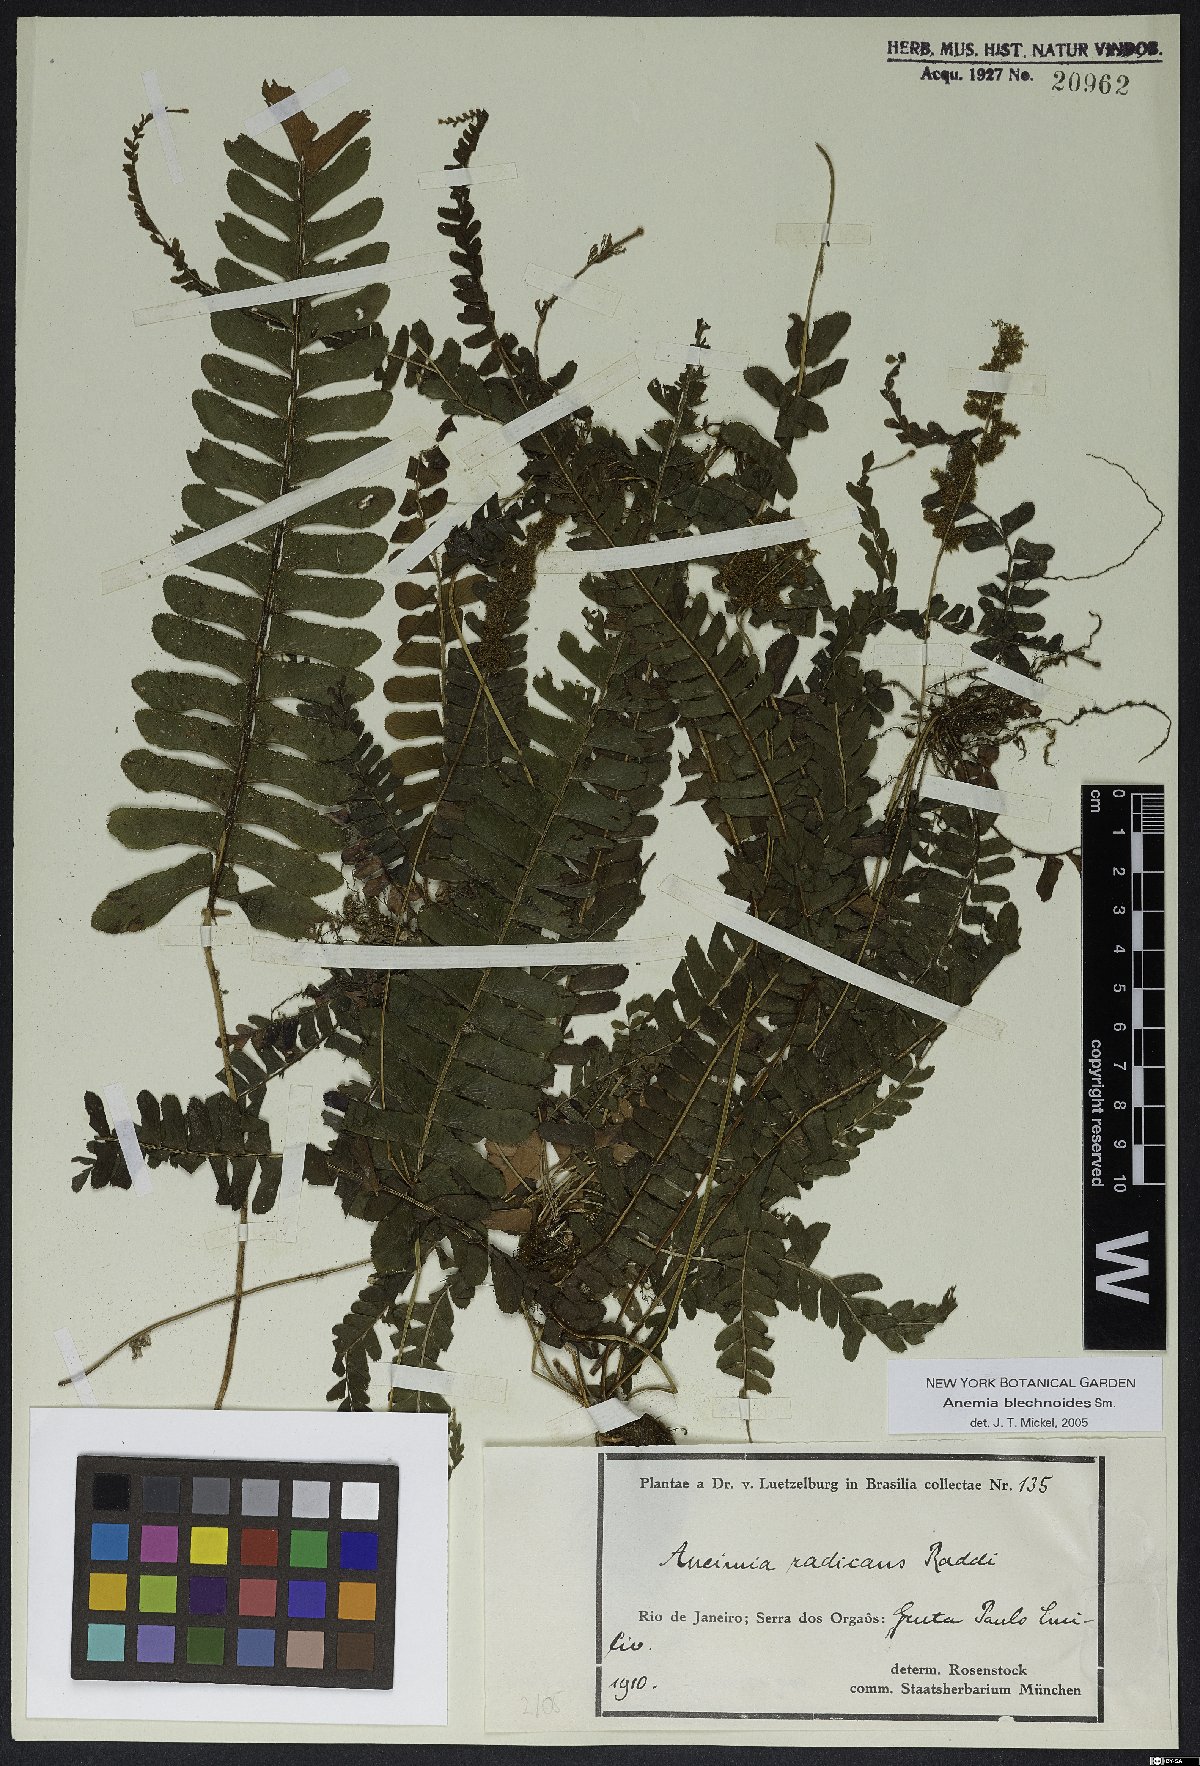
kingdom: Plantae
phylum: Tracheophyta
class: Polypodiopsida
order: Schizaeales
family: Anemiaceae
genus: Anemia
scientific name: Anemia spicantoides
